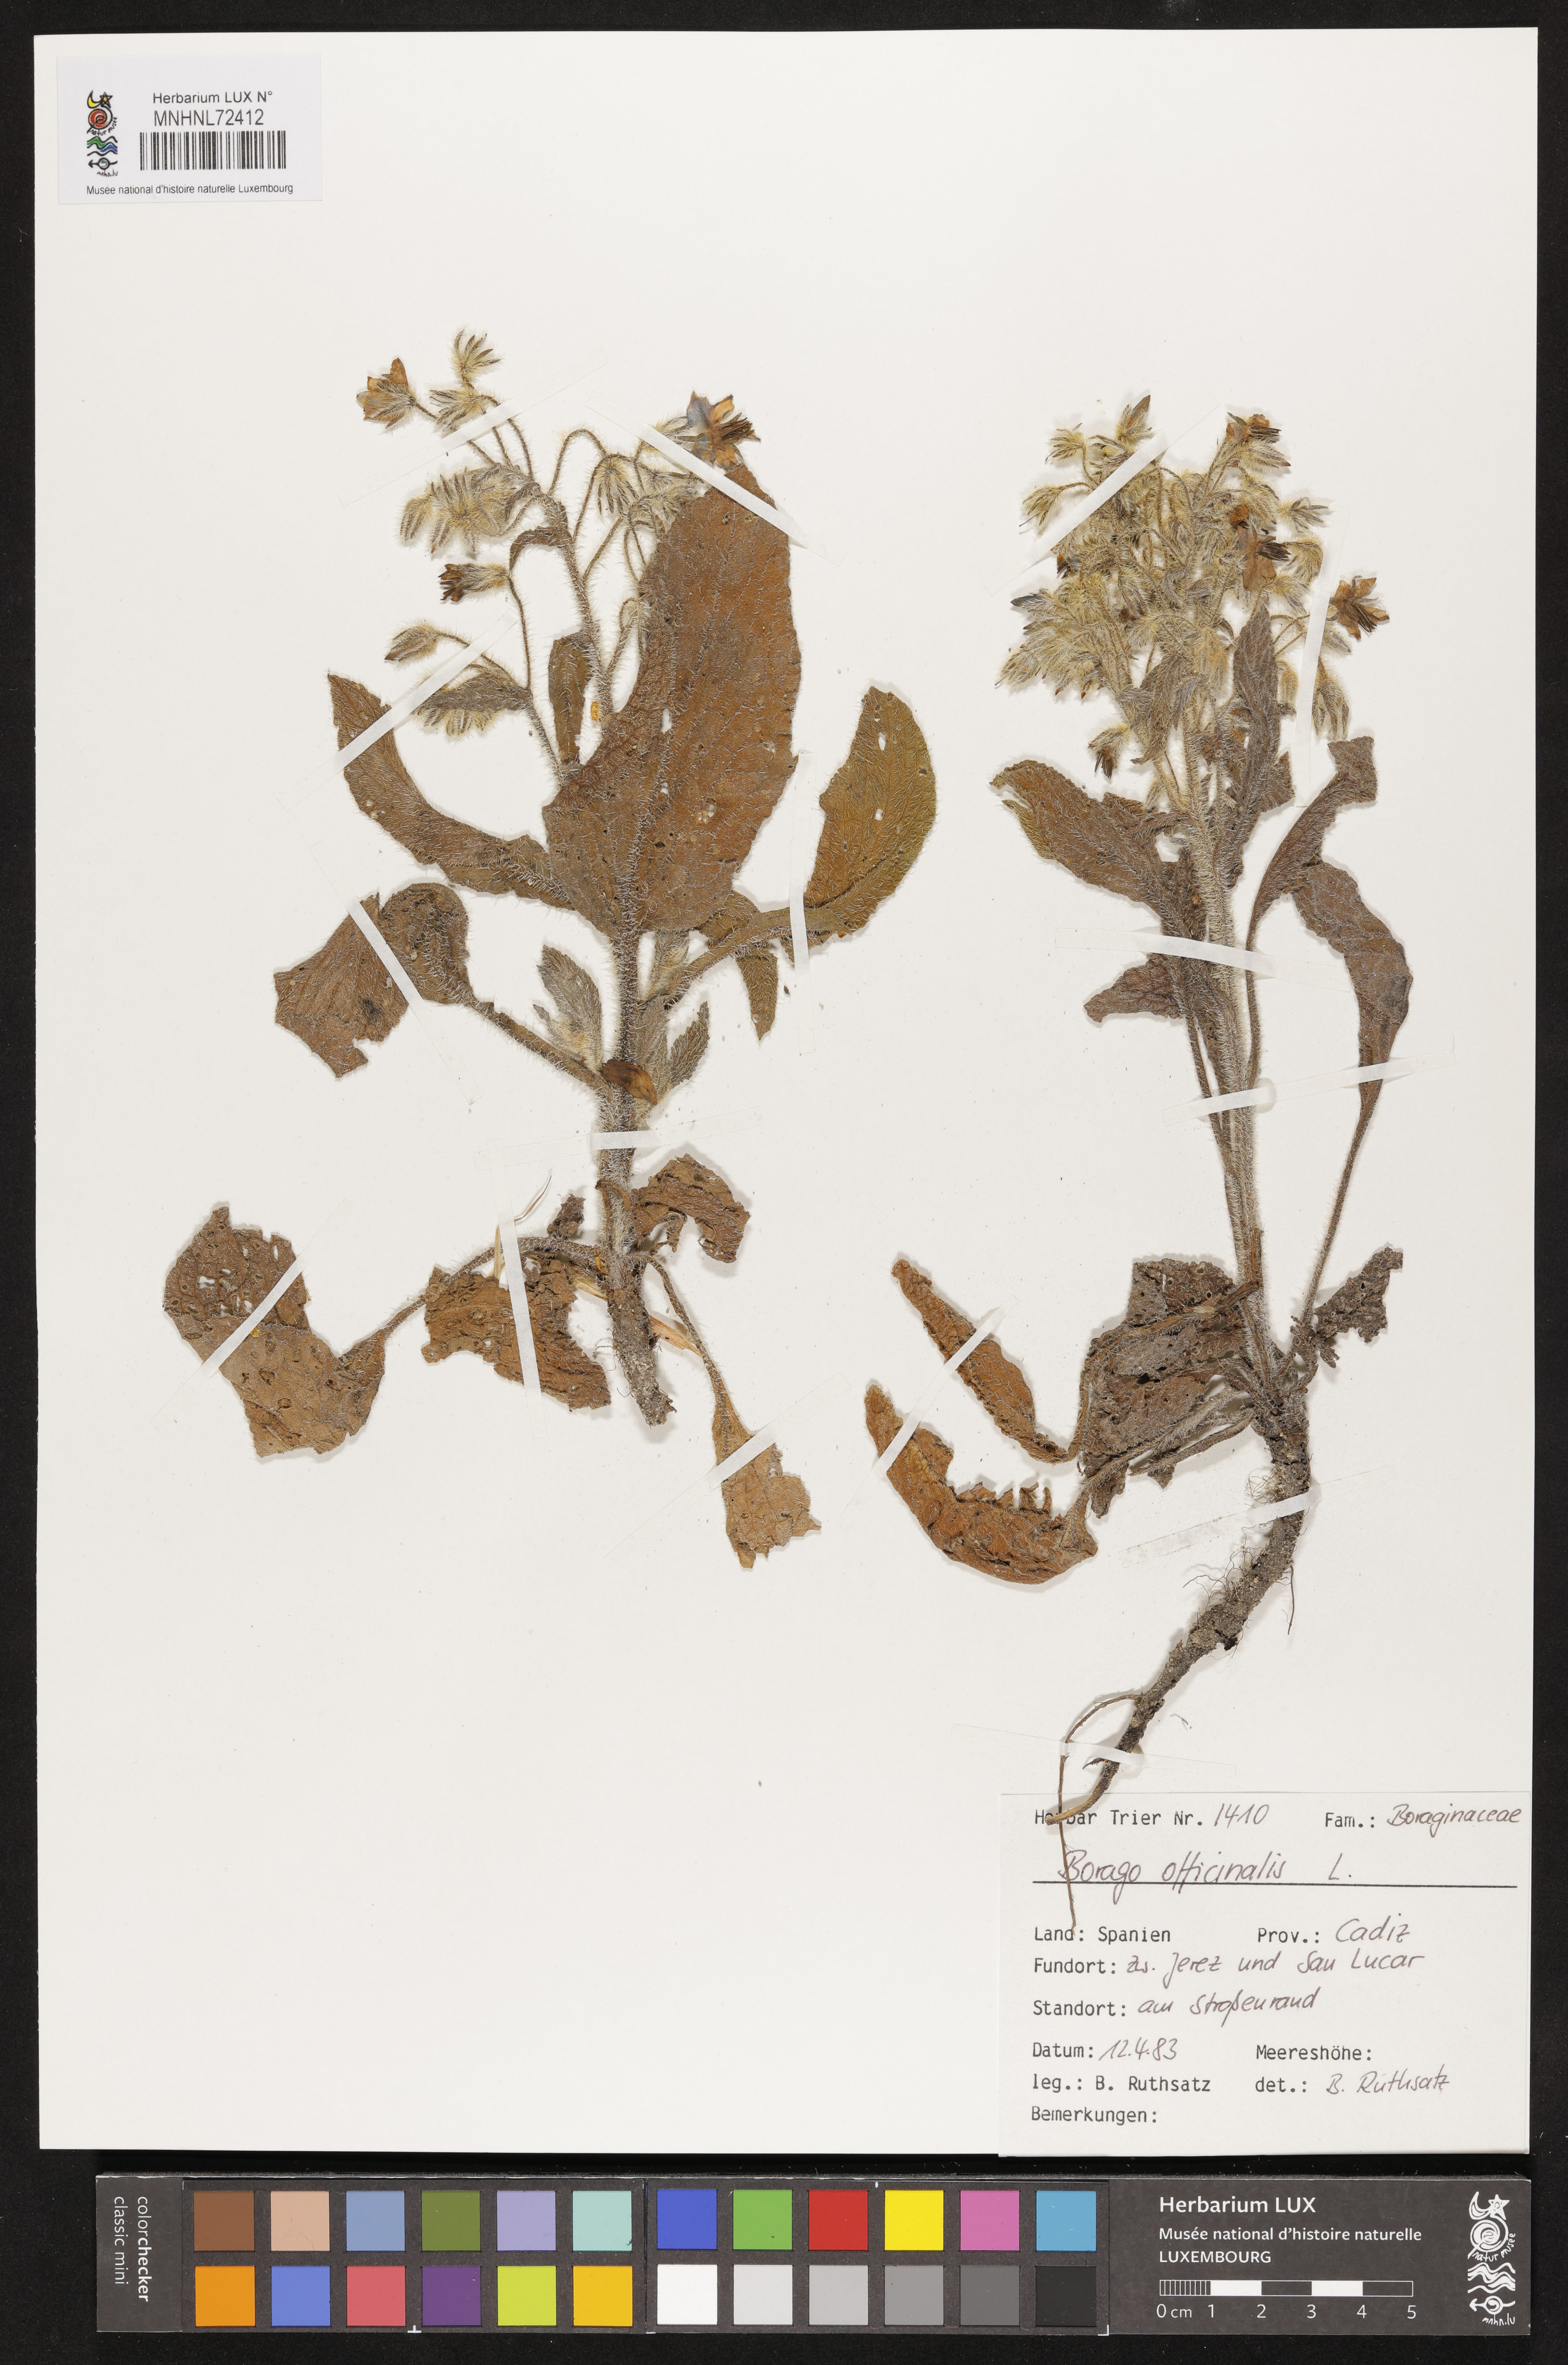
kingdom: Plantae
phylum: Tracheophyta
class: Magnoliopsida
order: Boraginales
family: Boraginaceae
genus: Borago
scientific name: Borago officinalis
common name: Borage
